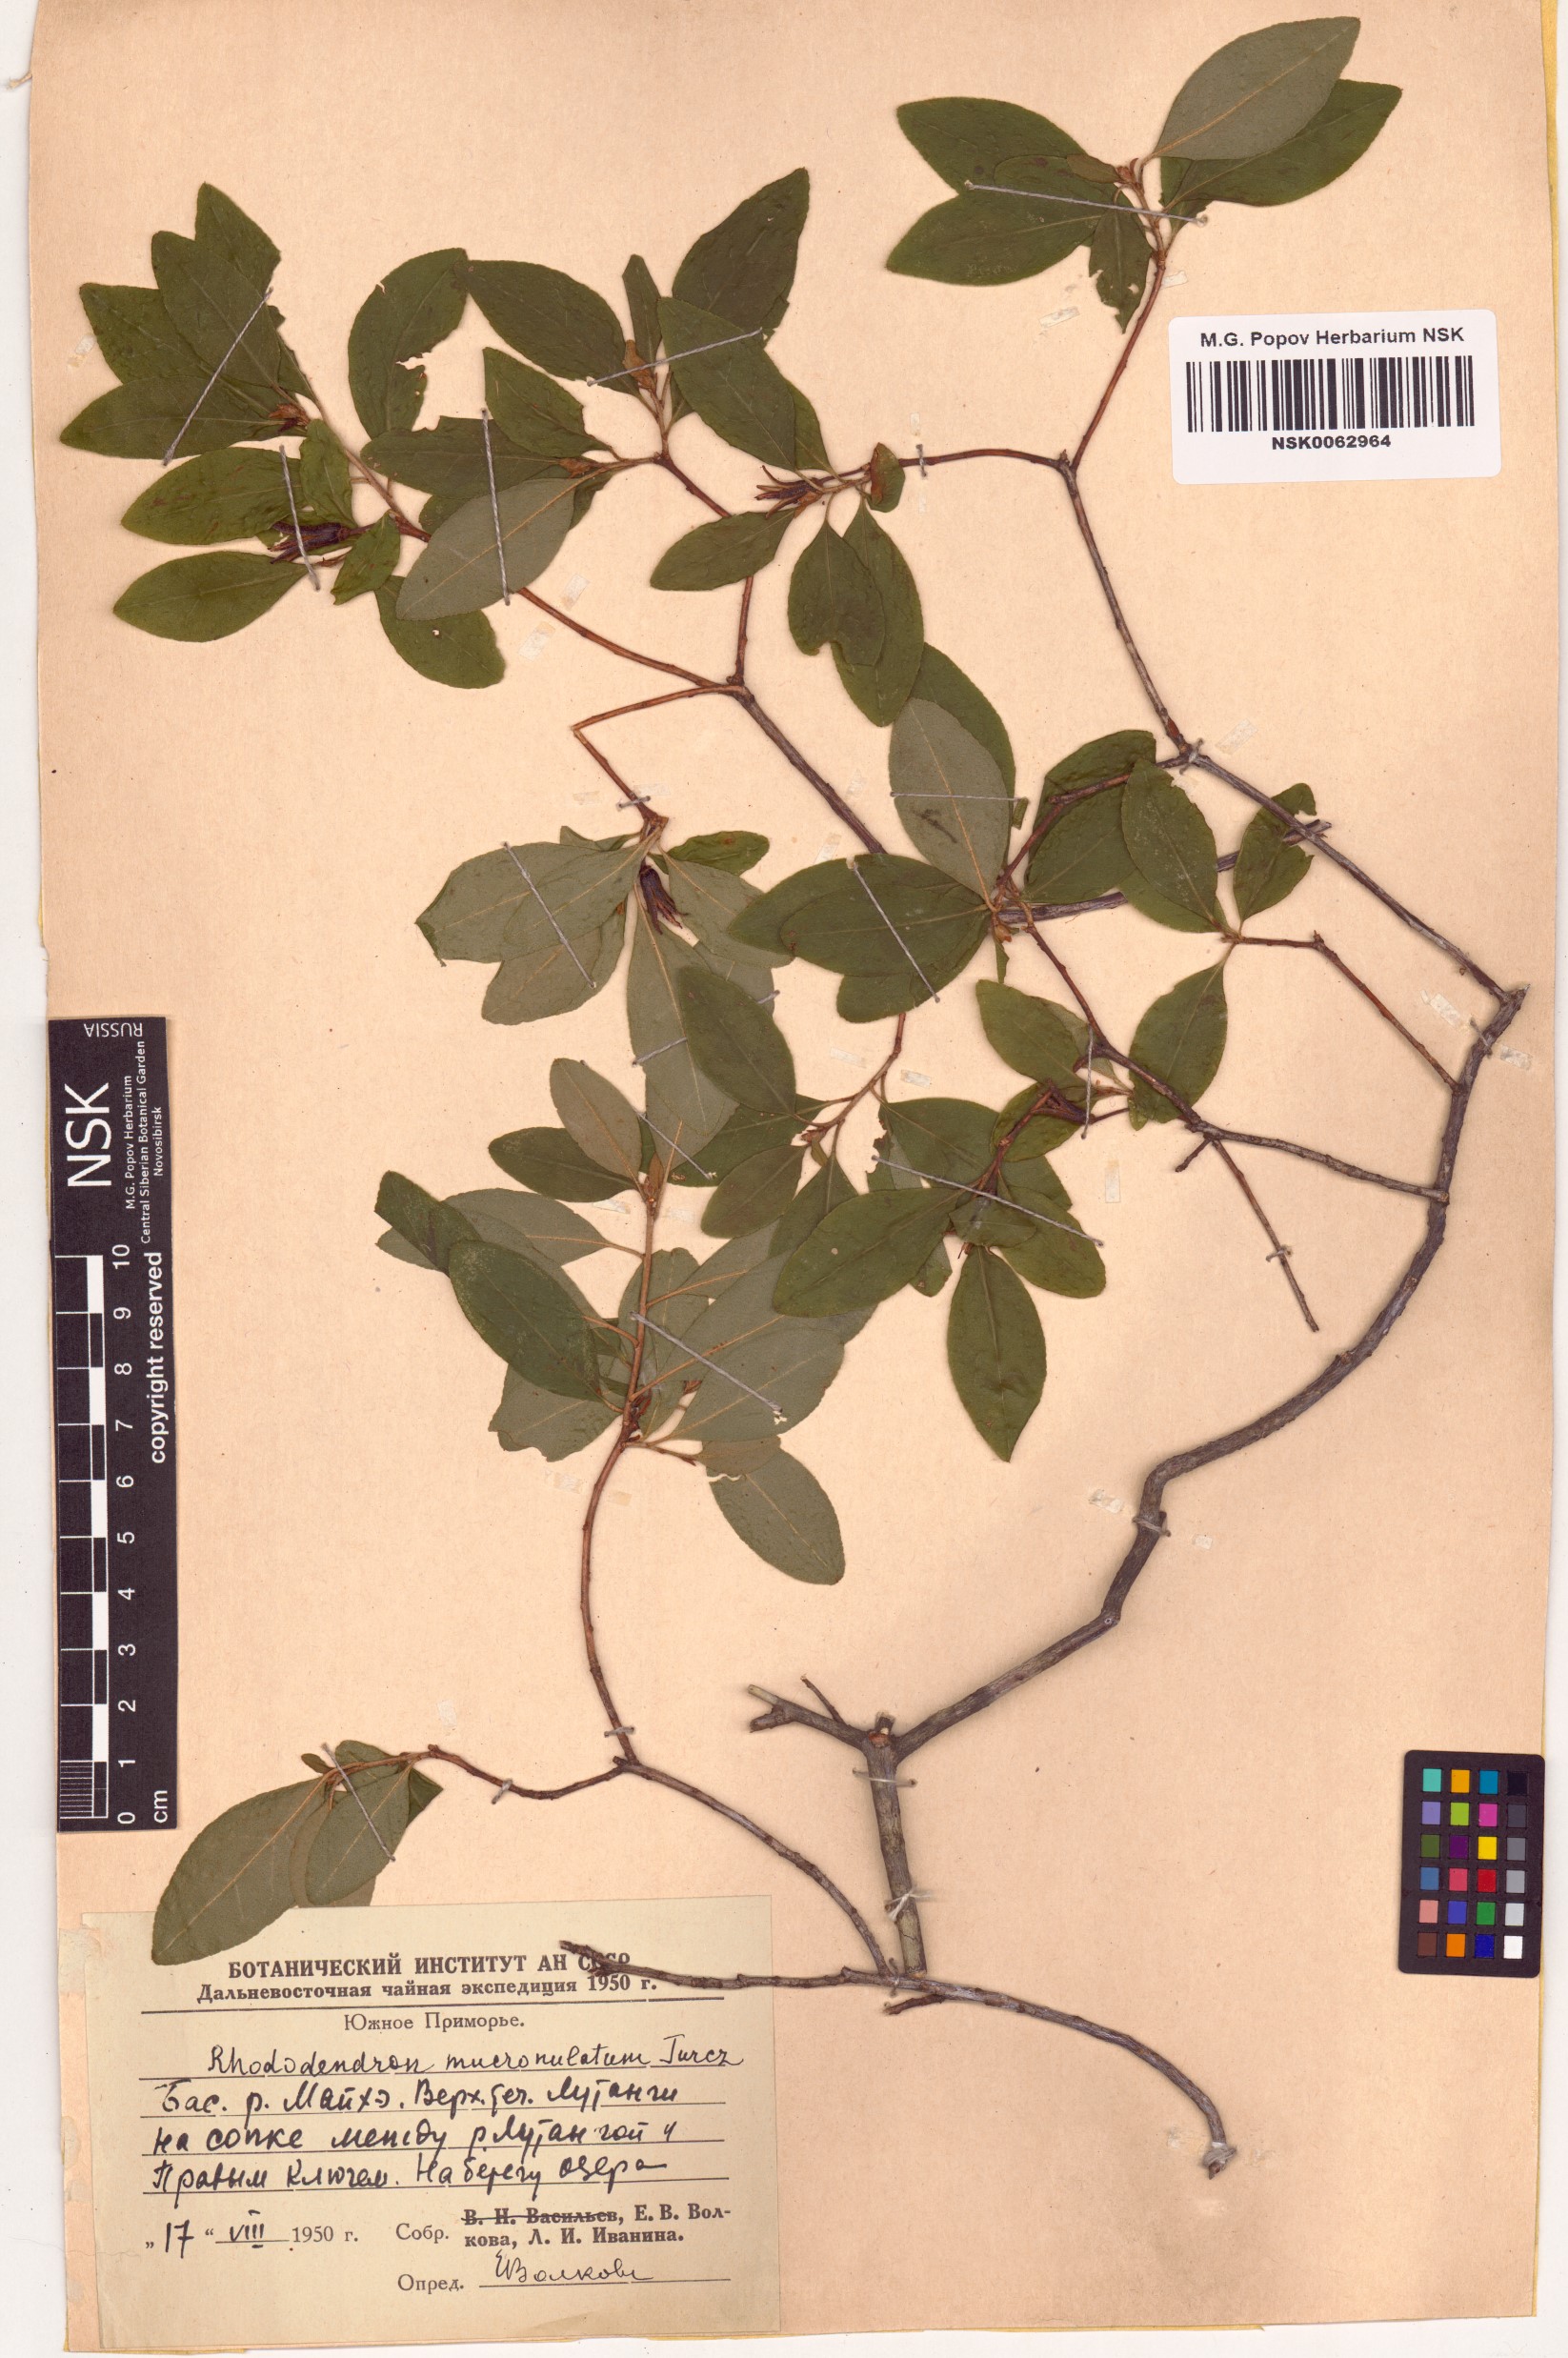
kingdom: Plantae
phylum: Tracheophyta
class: Magnoliopsida
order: Ericales
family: Ericaceae
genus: Rhododendron
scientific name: Rhododendron mucronulatum
